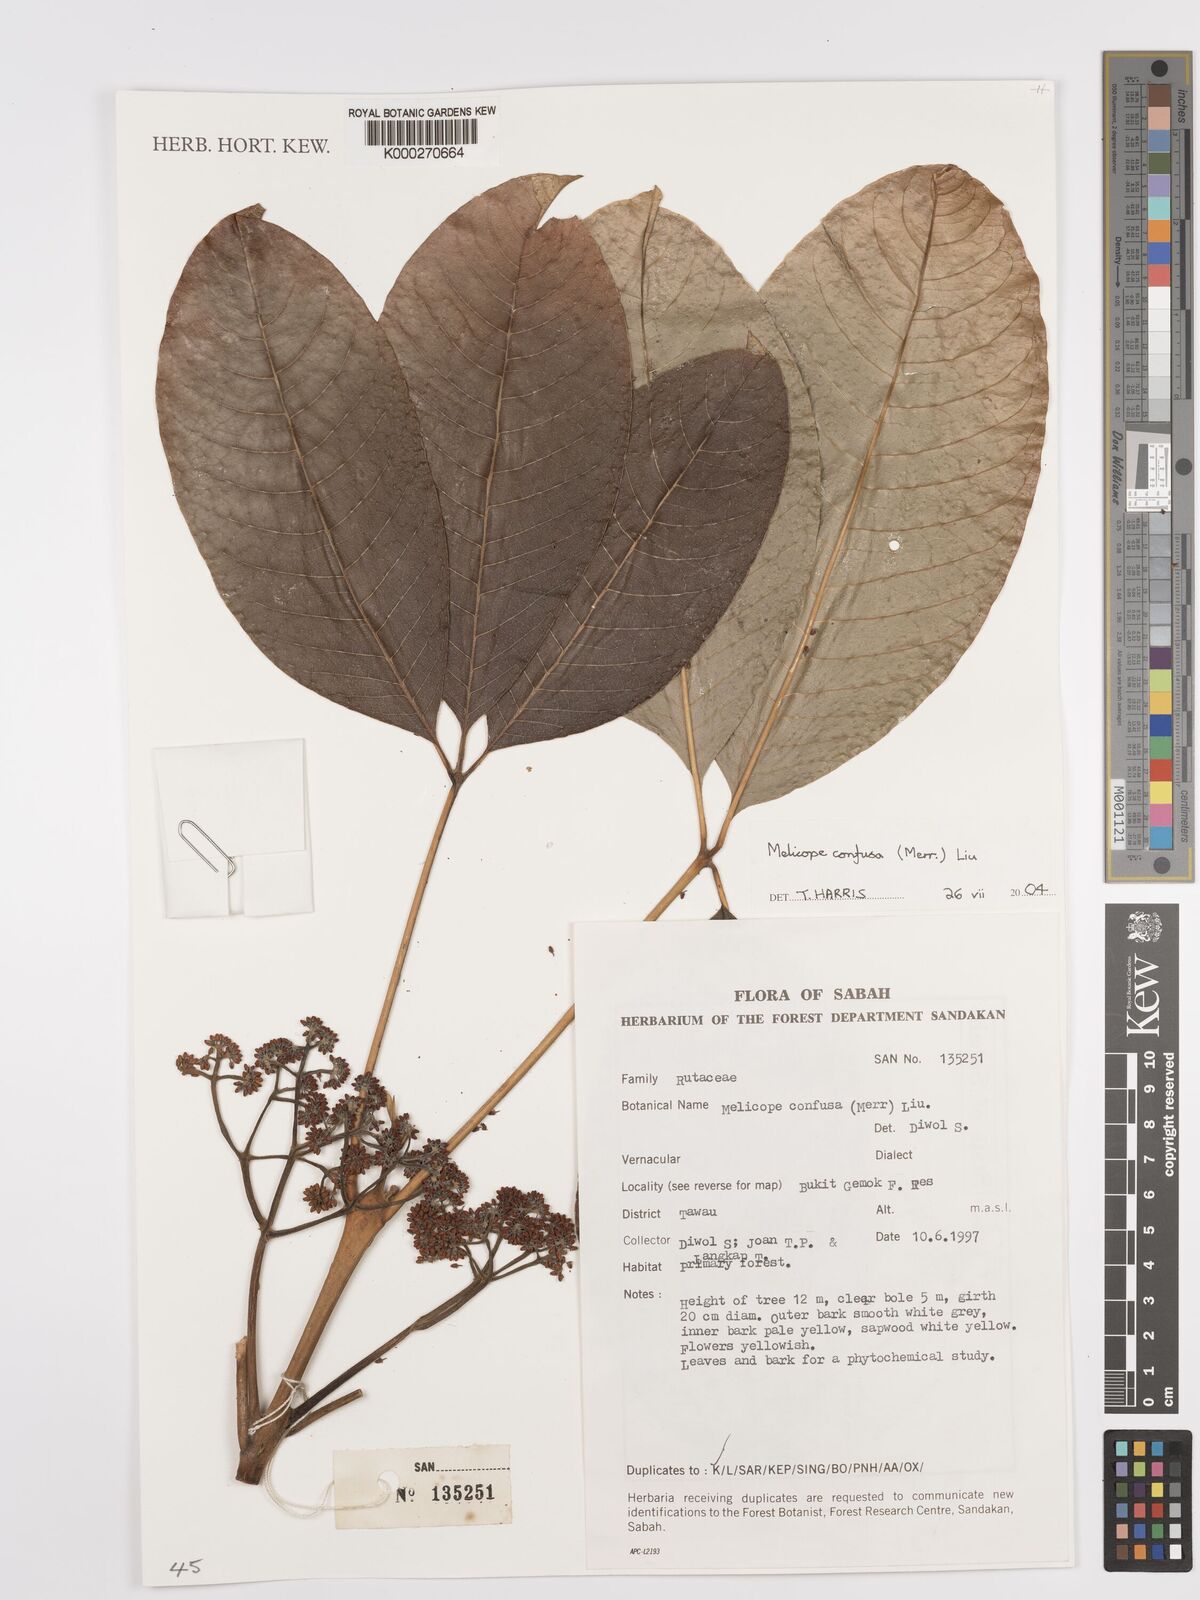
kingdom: Plantae
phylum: Tracheophyta
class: Magnoliopsida
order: Sapindales
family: Rutaceae
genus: Melicope
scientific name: Melicope frutescens
